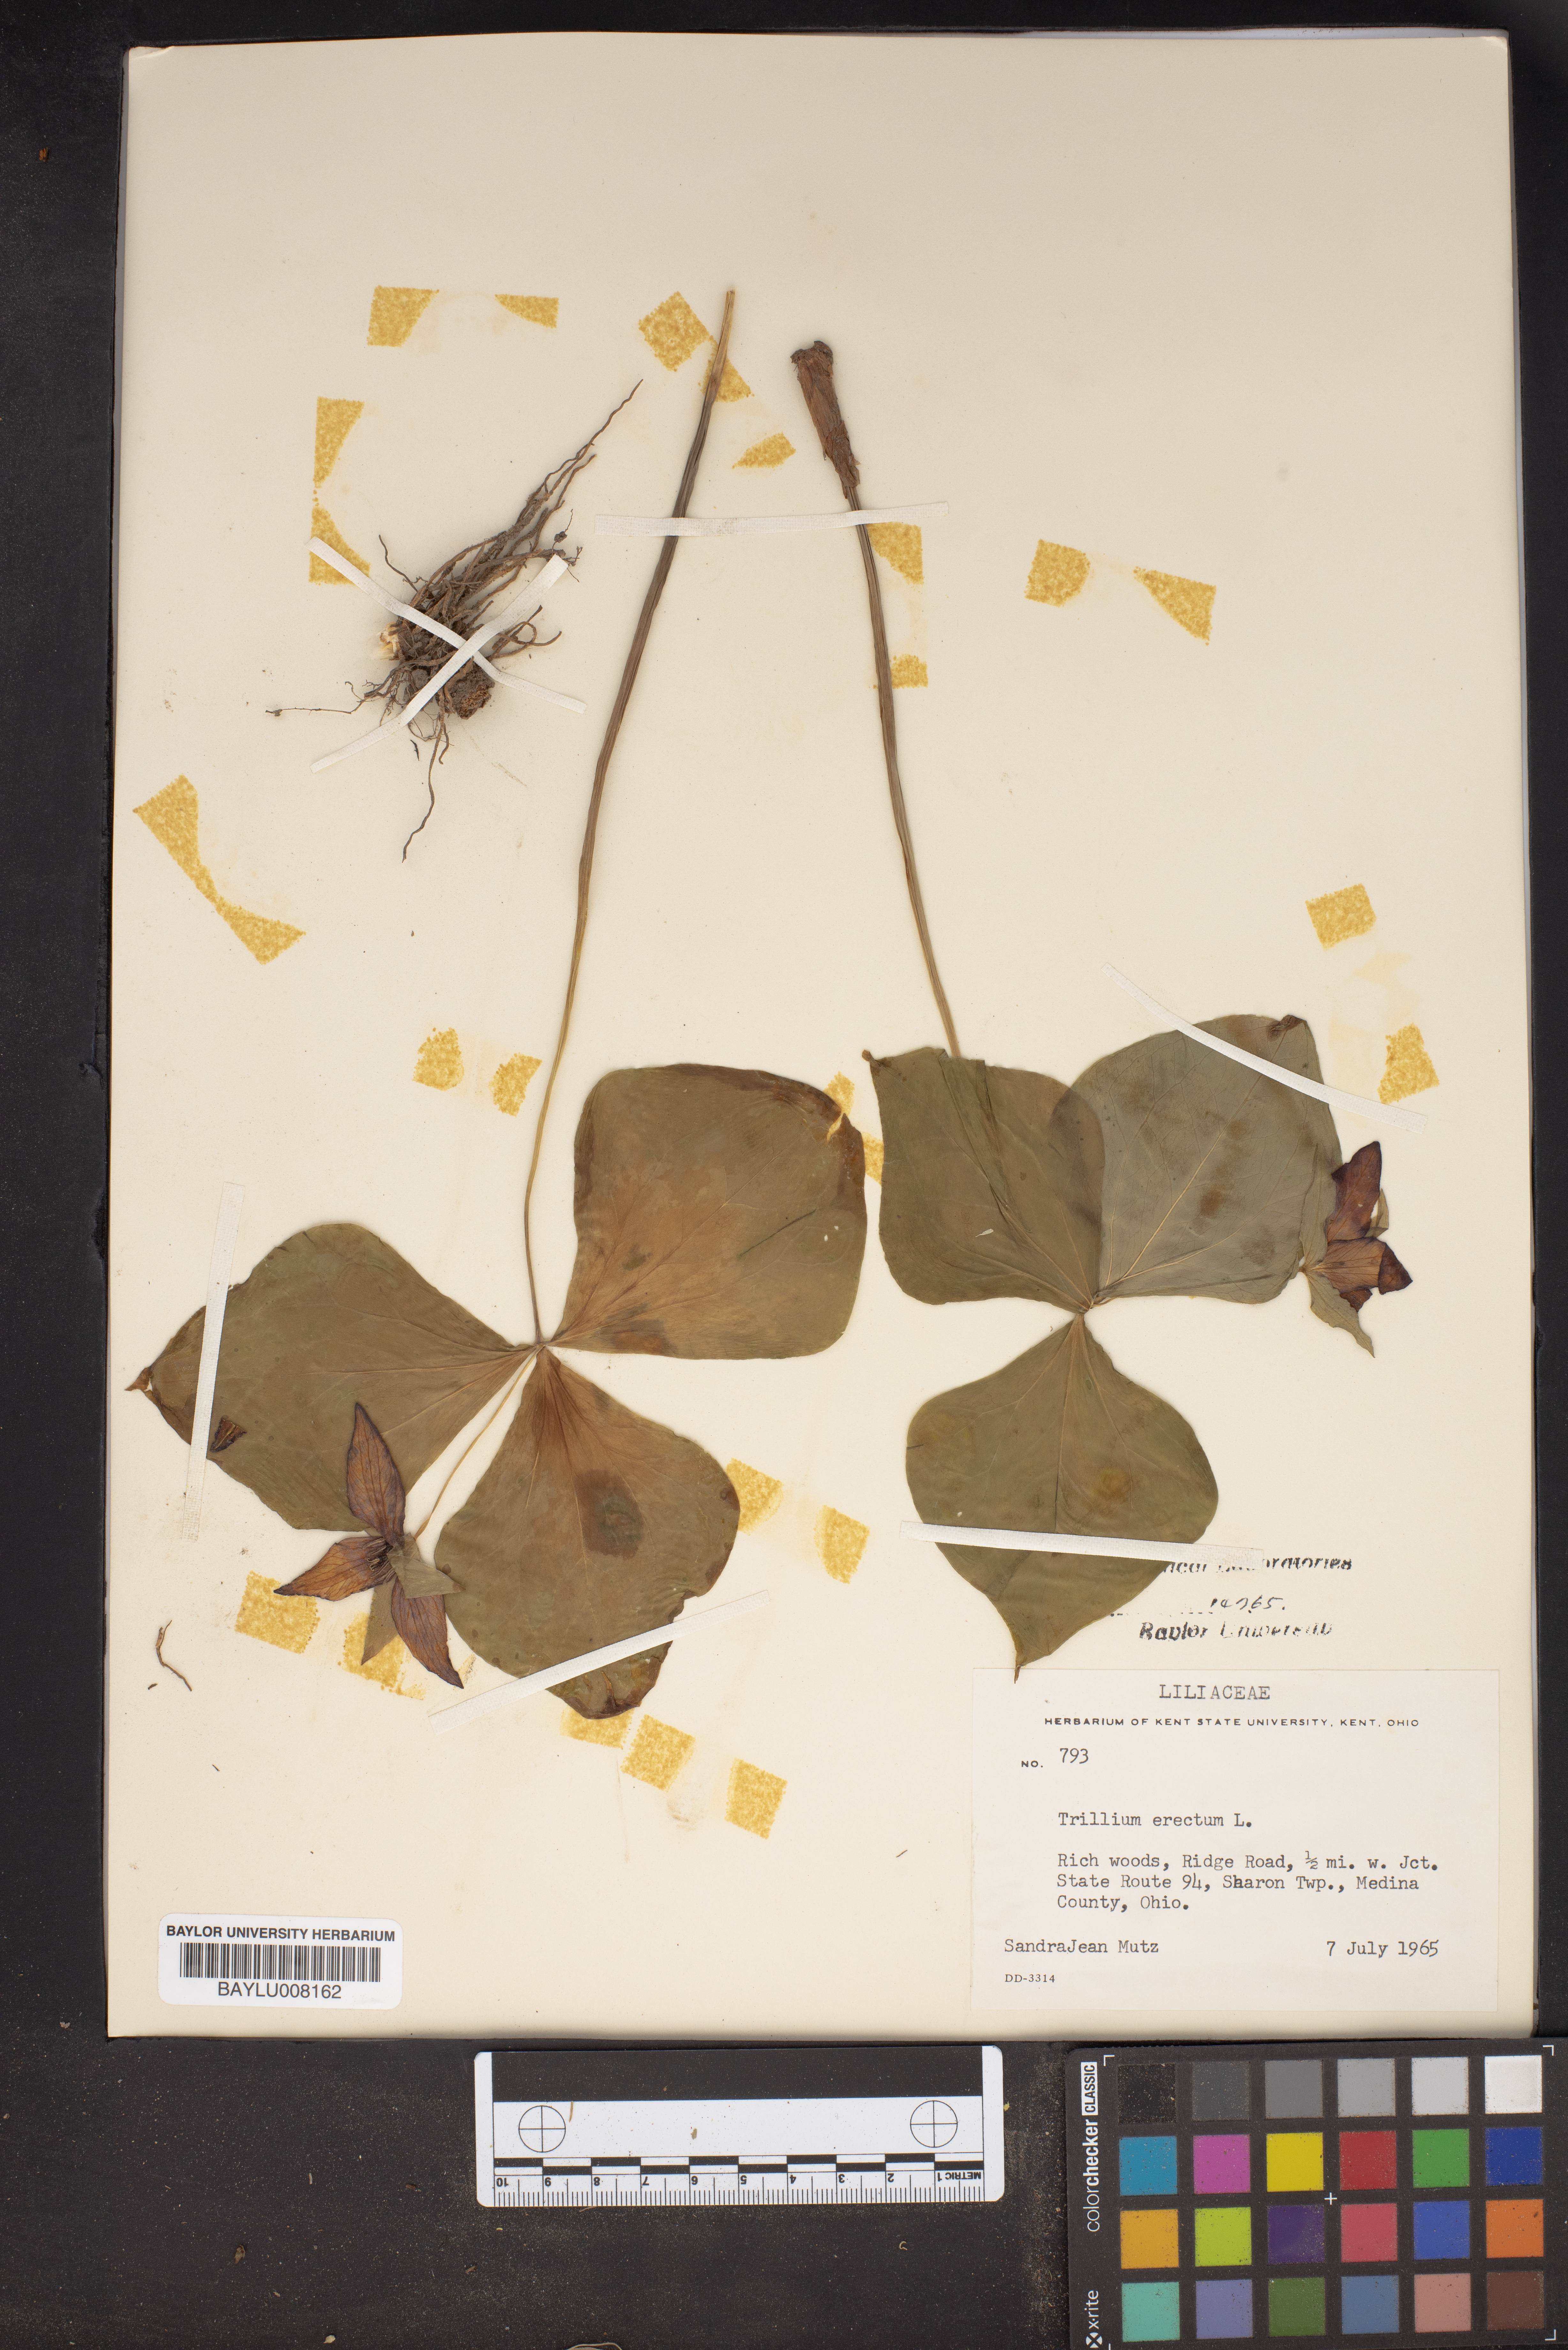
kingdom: Plantae
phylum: Tracheophyta
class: Liliopsida
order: Liliales
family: Melanthiaceae
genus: Trillium
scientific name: Trillium erectum
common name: Purple trillium
